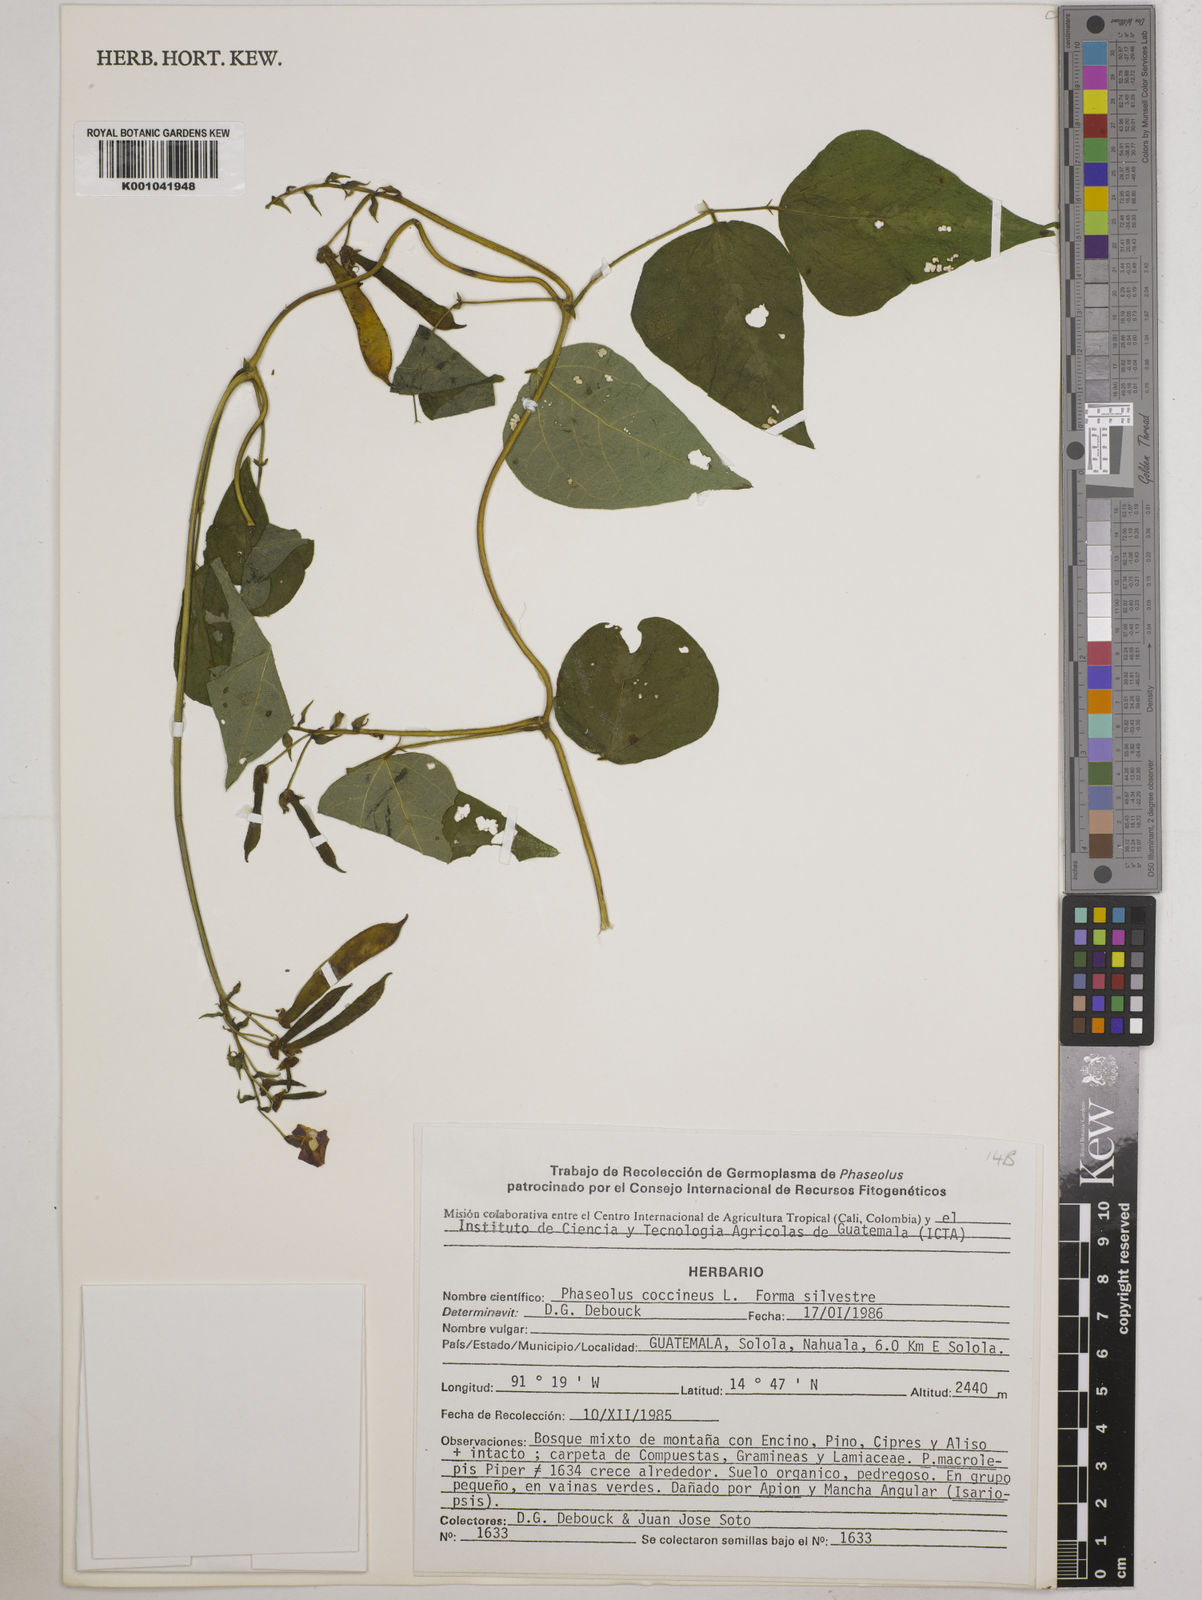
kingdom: Plantae
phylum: Tracheophyta
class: Magnoliopsida
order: Fabales
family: Fabaceae
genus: Phaseolus
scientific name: Phaseolus coccineus
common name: Runner bean
